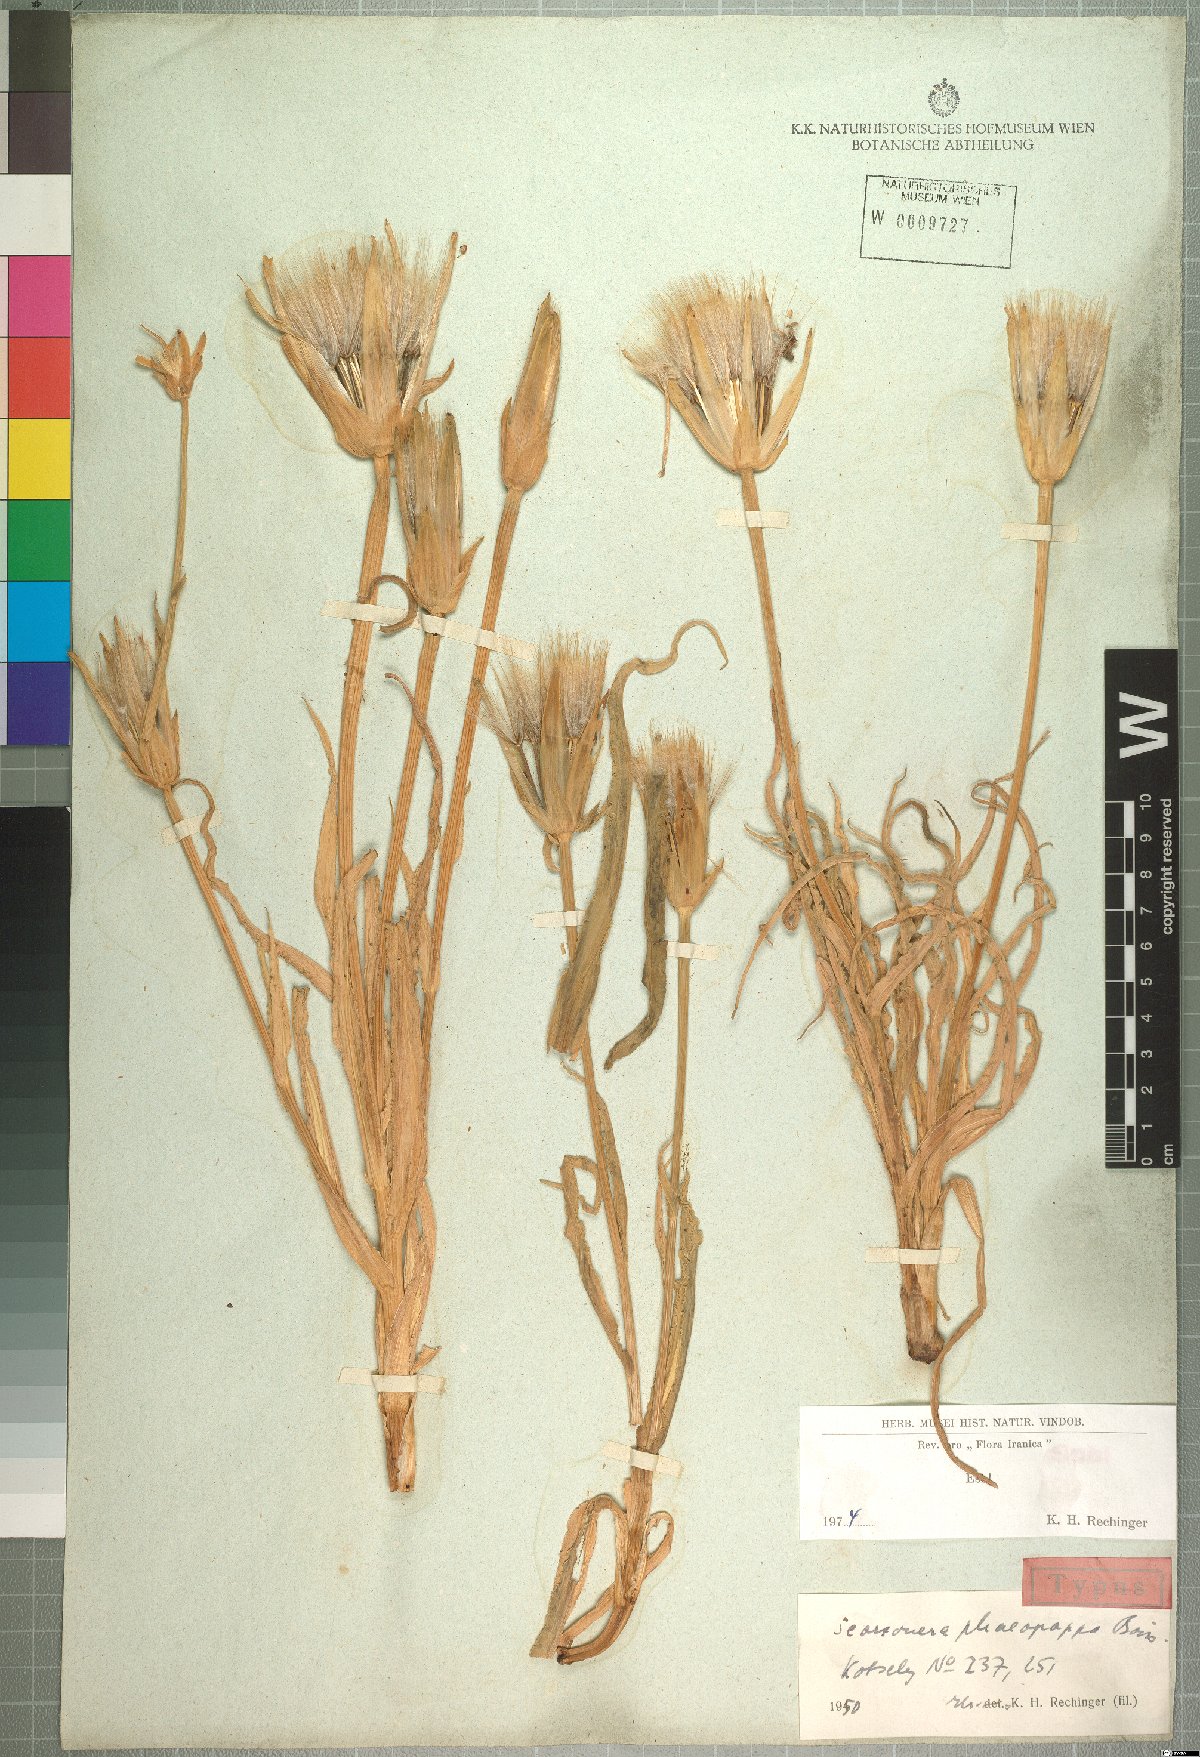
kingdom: Plantae
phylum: Tracheophyta
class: Magnoliopsida
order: Asterales
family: Asteraceae
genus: Pseudopodospermum
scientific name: Pseudopodospermum phaeopappum
